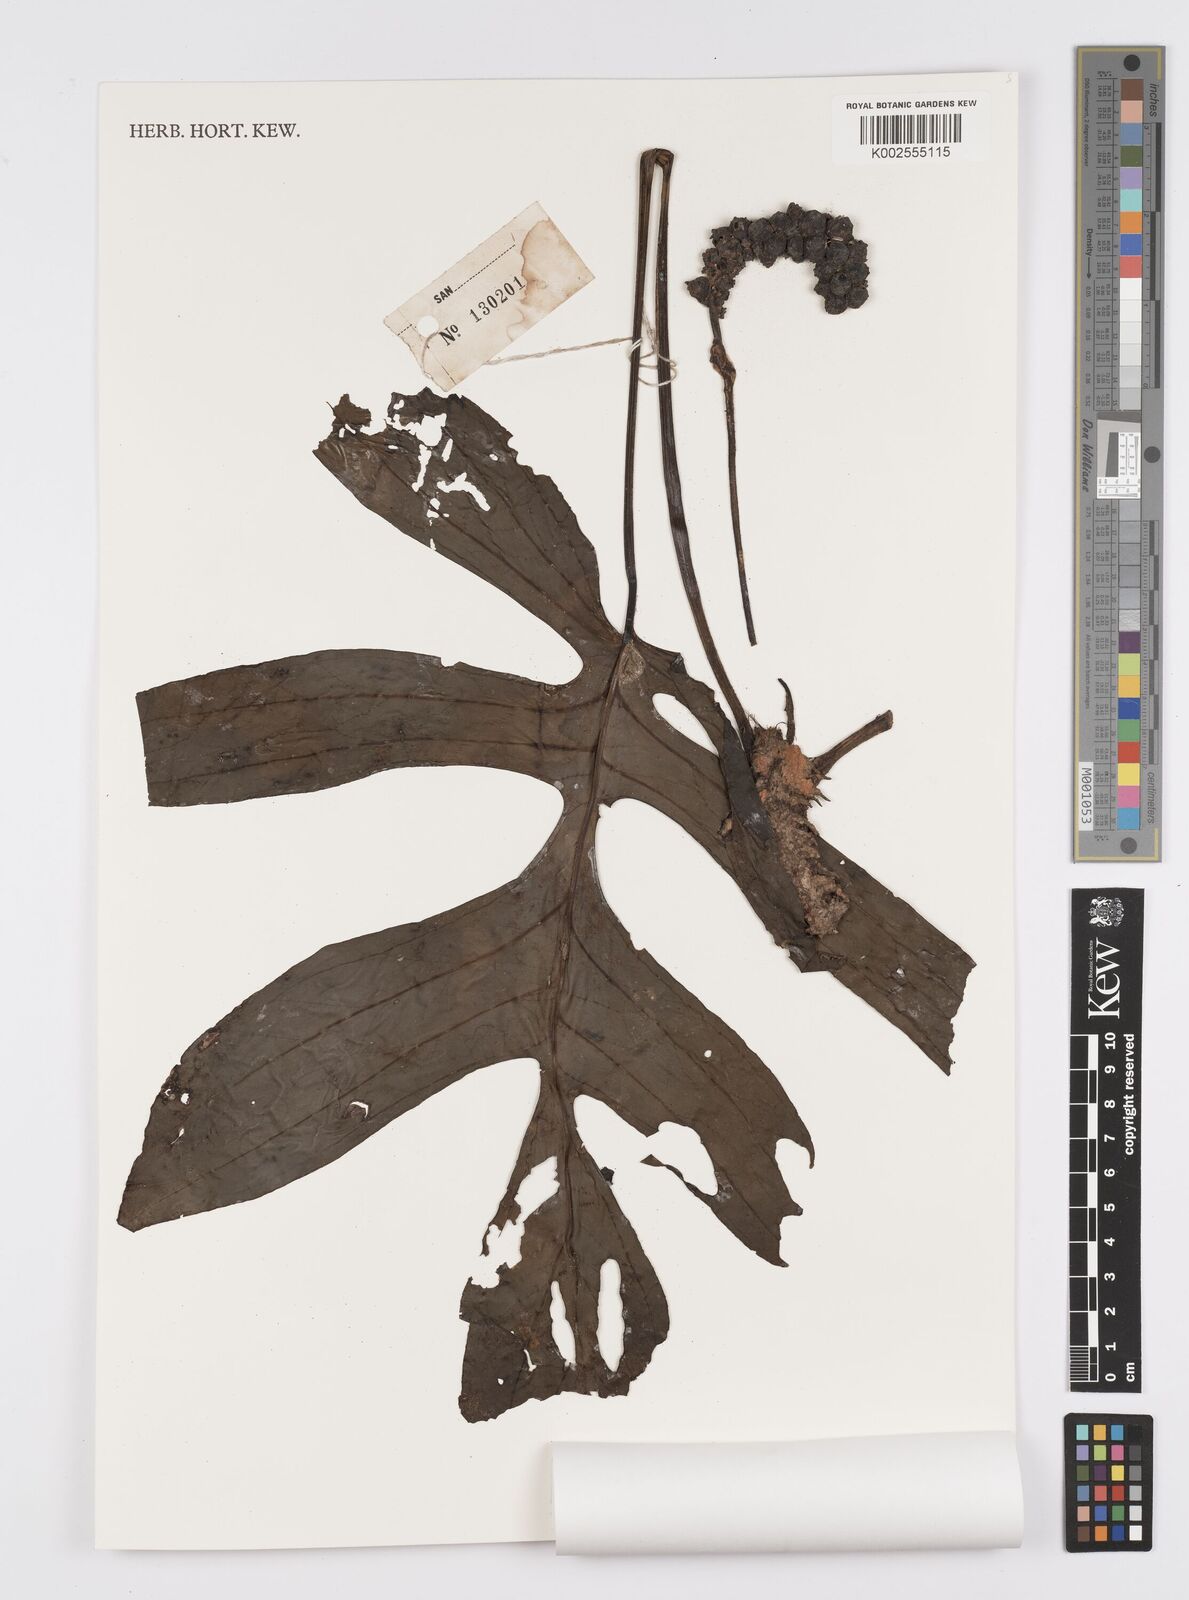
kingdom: Plantae
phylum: Tracheophyta
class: Liliopsida
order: Alismatales
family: Araceae
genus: Amydrium
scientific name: Amydrium medium
